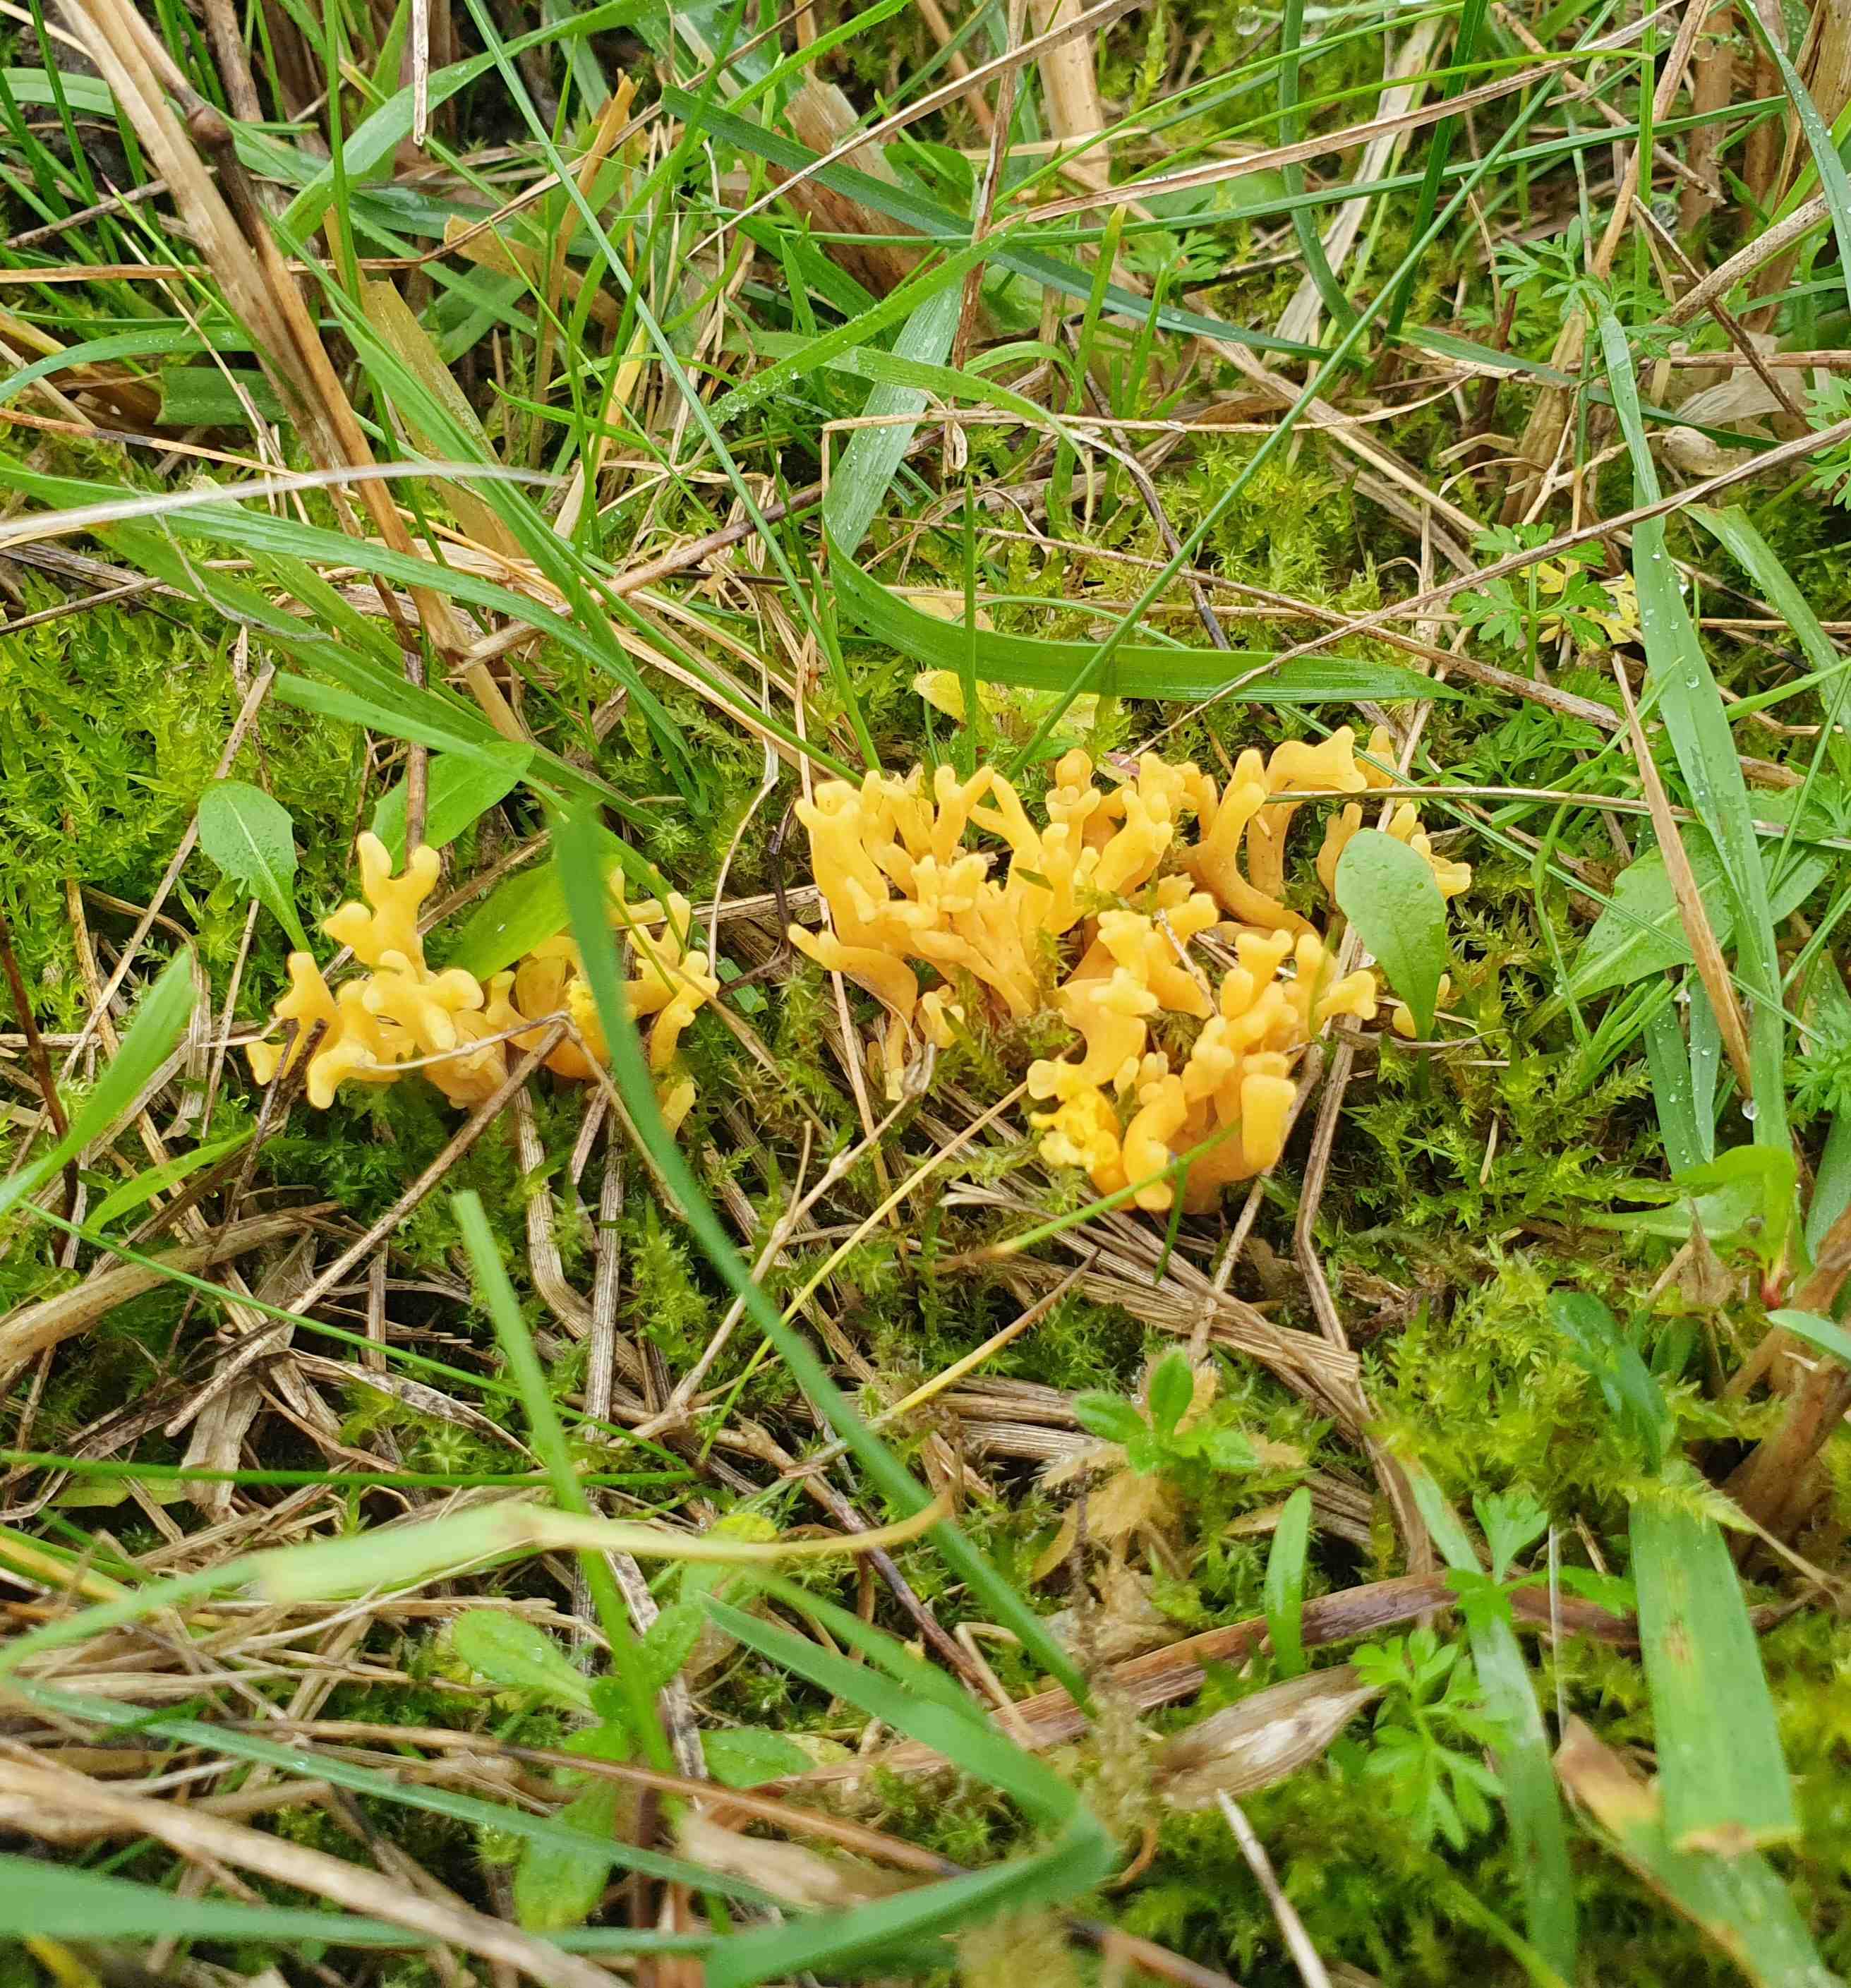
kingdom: Fungi
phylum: Basidiomycota
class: Agaricomycetes
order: Agaricales
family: Clavariaceae
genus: Clavulinopsis
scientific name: Clavulinopsis corniculata
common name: eng-køllesvamp
